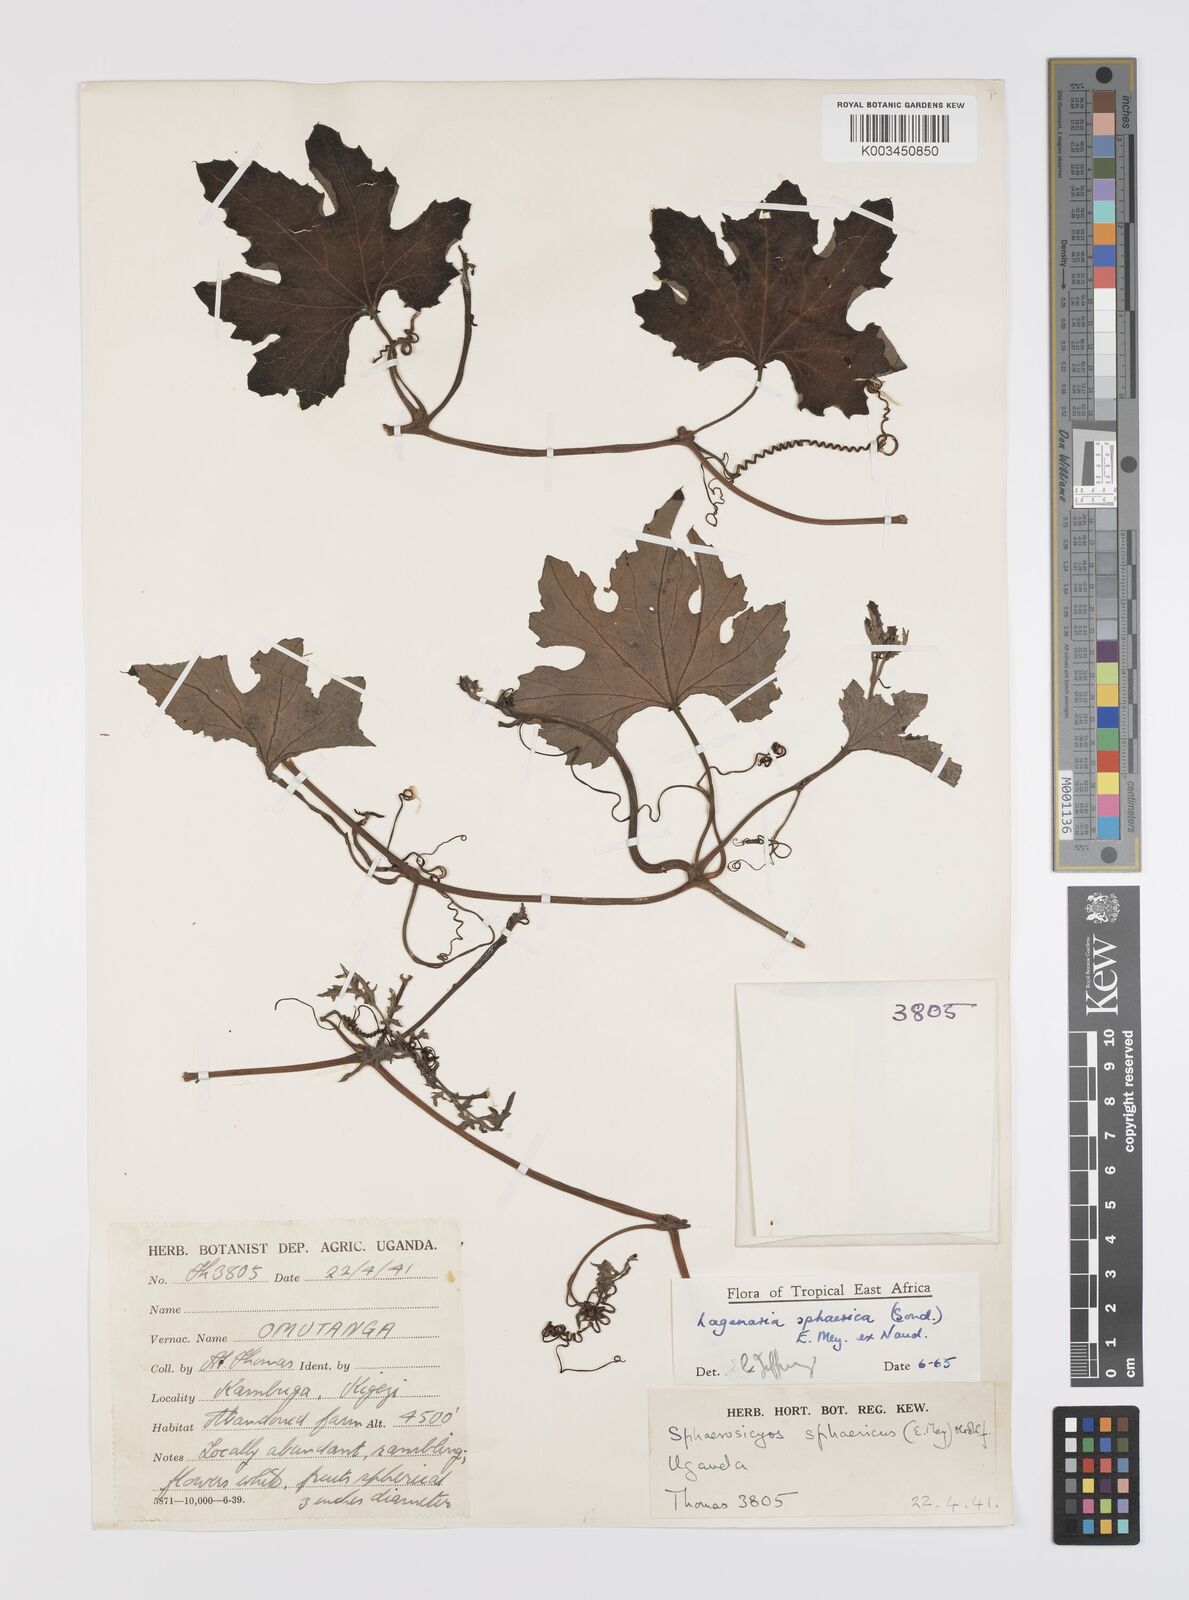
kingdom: Plantae
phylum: Tracheophyta
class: Magnoliopsida
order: Cucurbitales
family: Cucurbitaceae
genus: Lagenaria
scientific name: Lagenaria sphaerica
